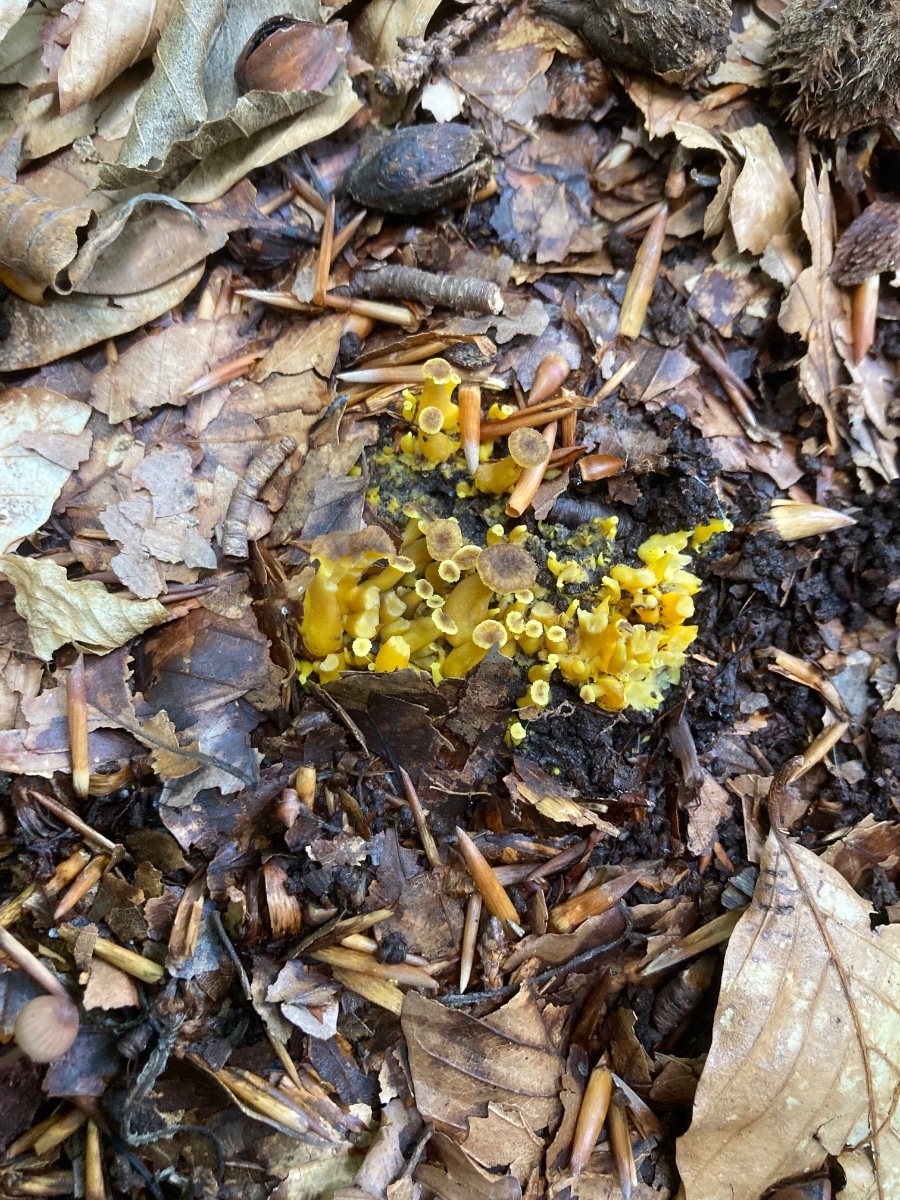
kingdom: Fungi
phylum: Basidiomycota
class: Agaricomycetes
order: Cantharellales
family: Hydnaceae
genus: Craterellus
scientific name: Craterellus tubaeformis
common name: tragt-kantarel
